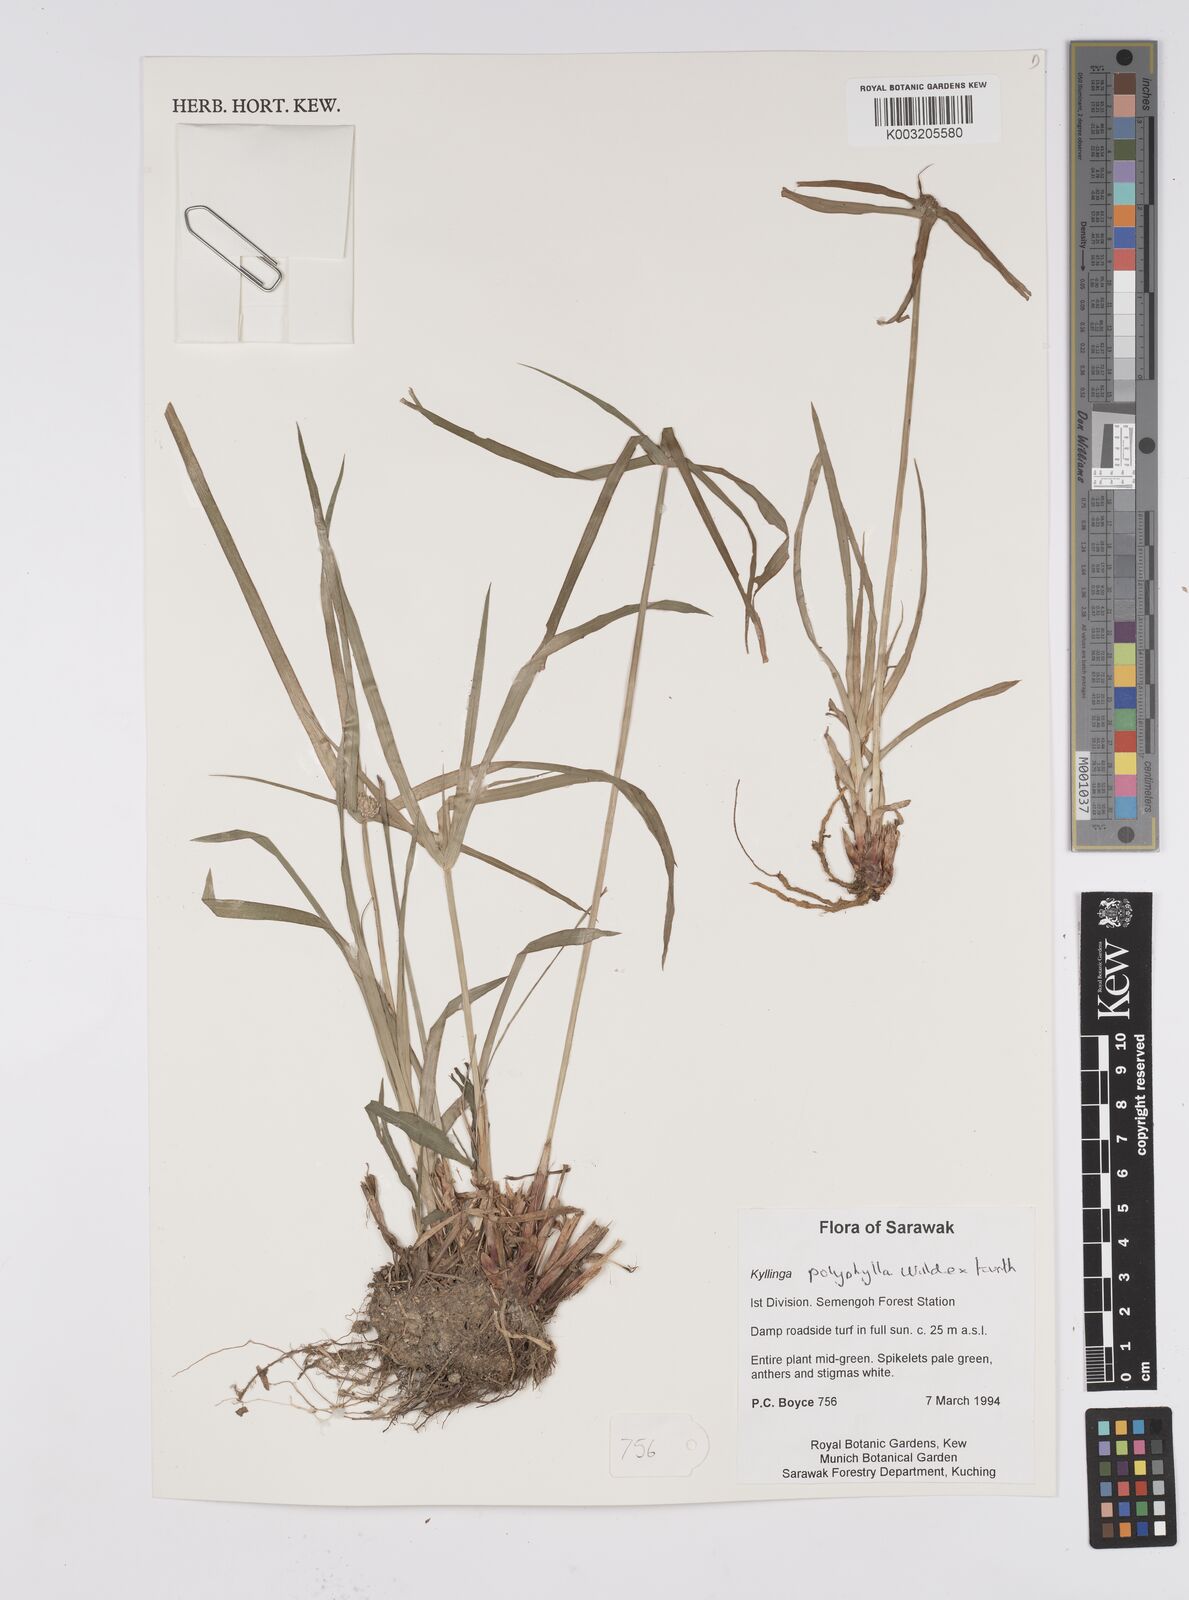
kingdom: Plantae
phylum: Tracheophyta
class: Liliopsida
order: Poales
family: Cyperaceae
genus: Cyperus
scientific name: Cyperus
